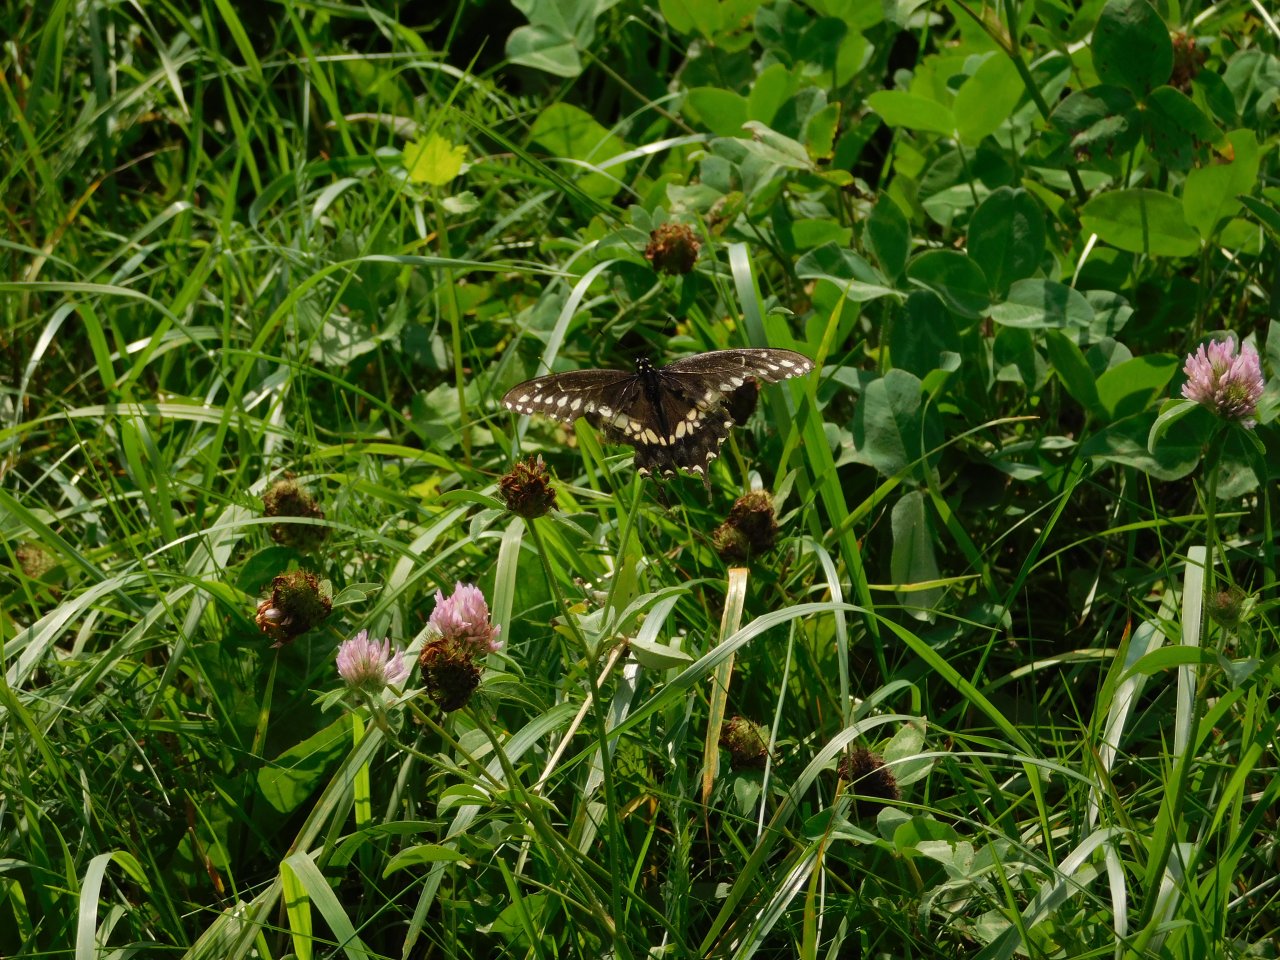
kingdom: Animalia
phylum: Arthropoda
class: Insecta
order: Lepidoptera
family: Papilionidae
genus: Papilio
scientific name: Papilio polyxenes
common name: Black Swallowtail
